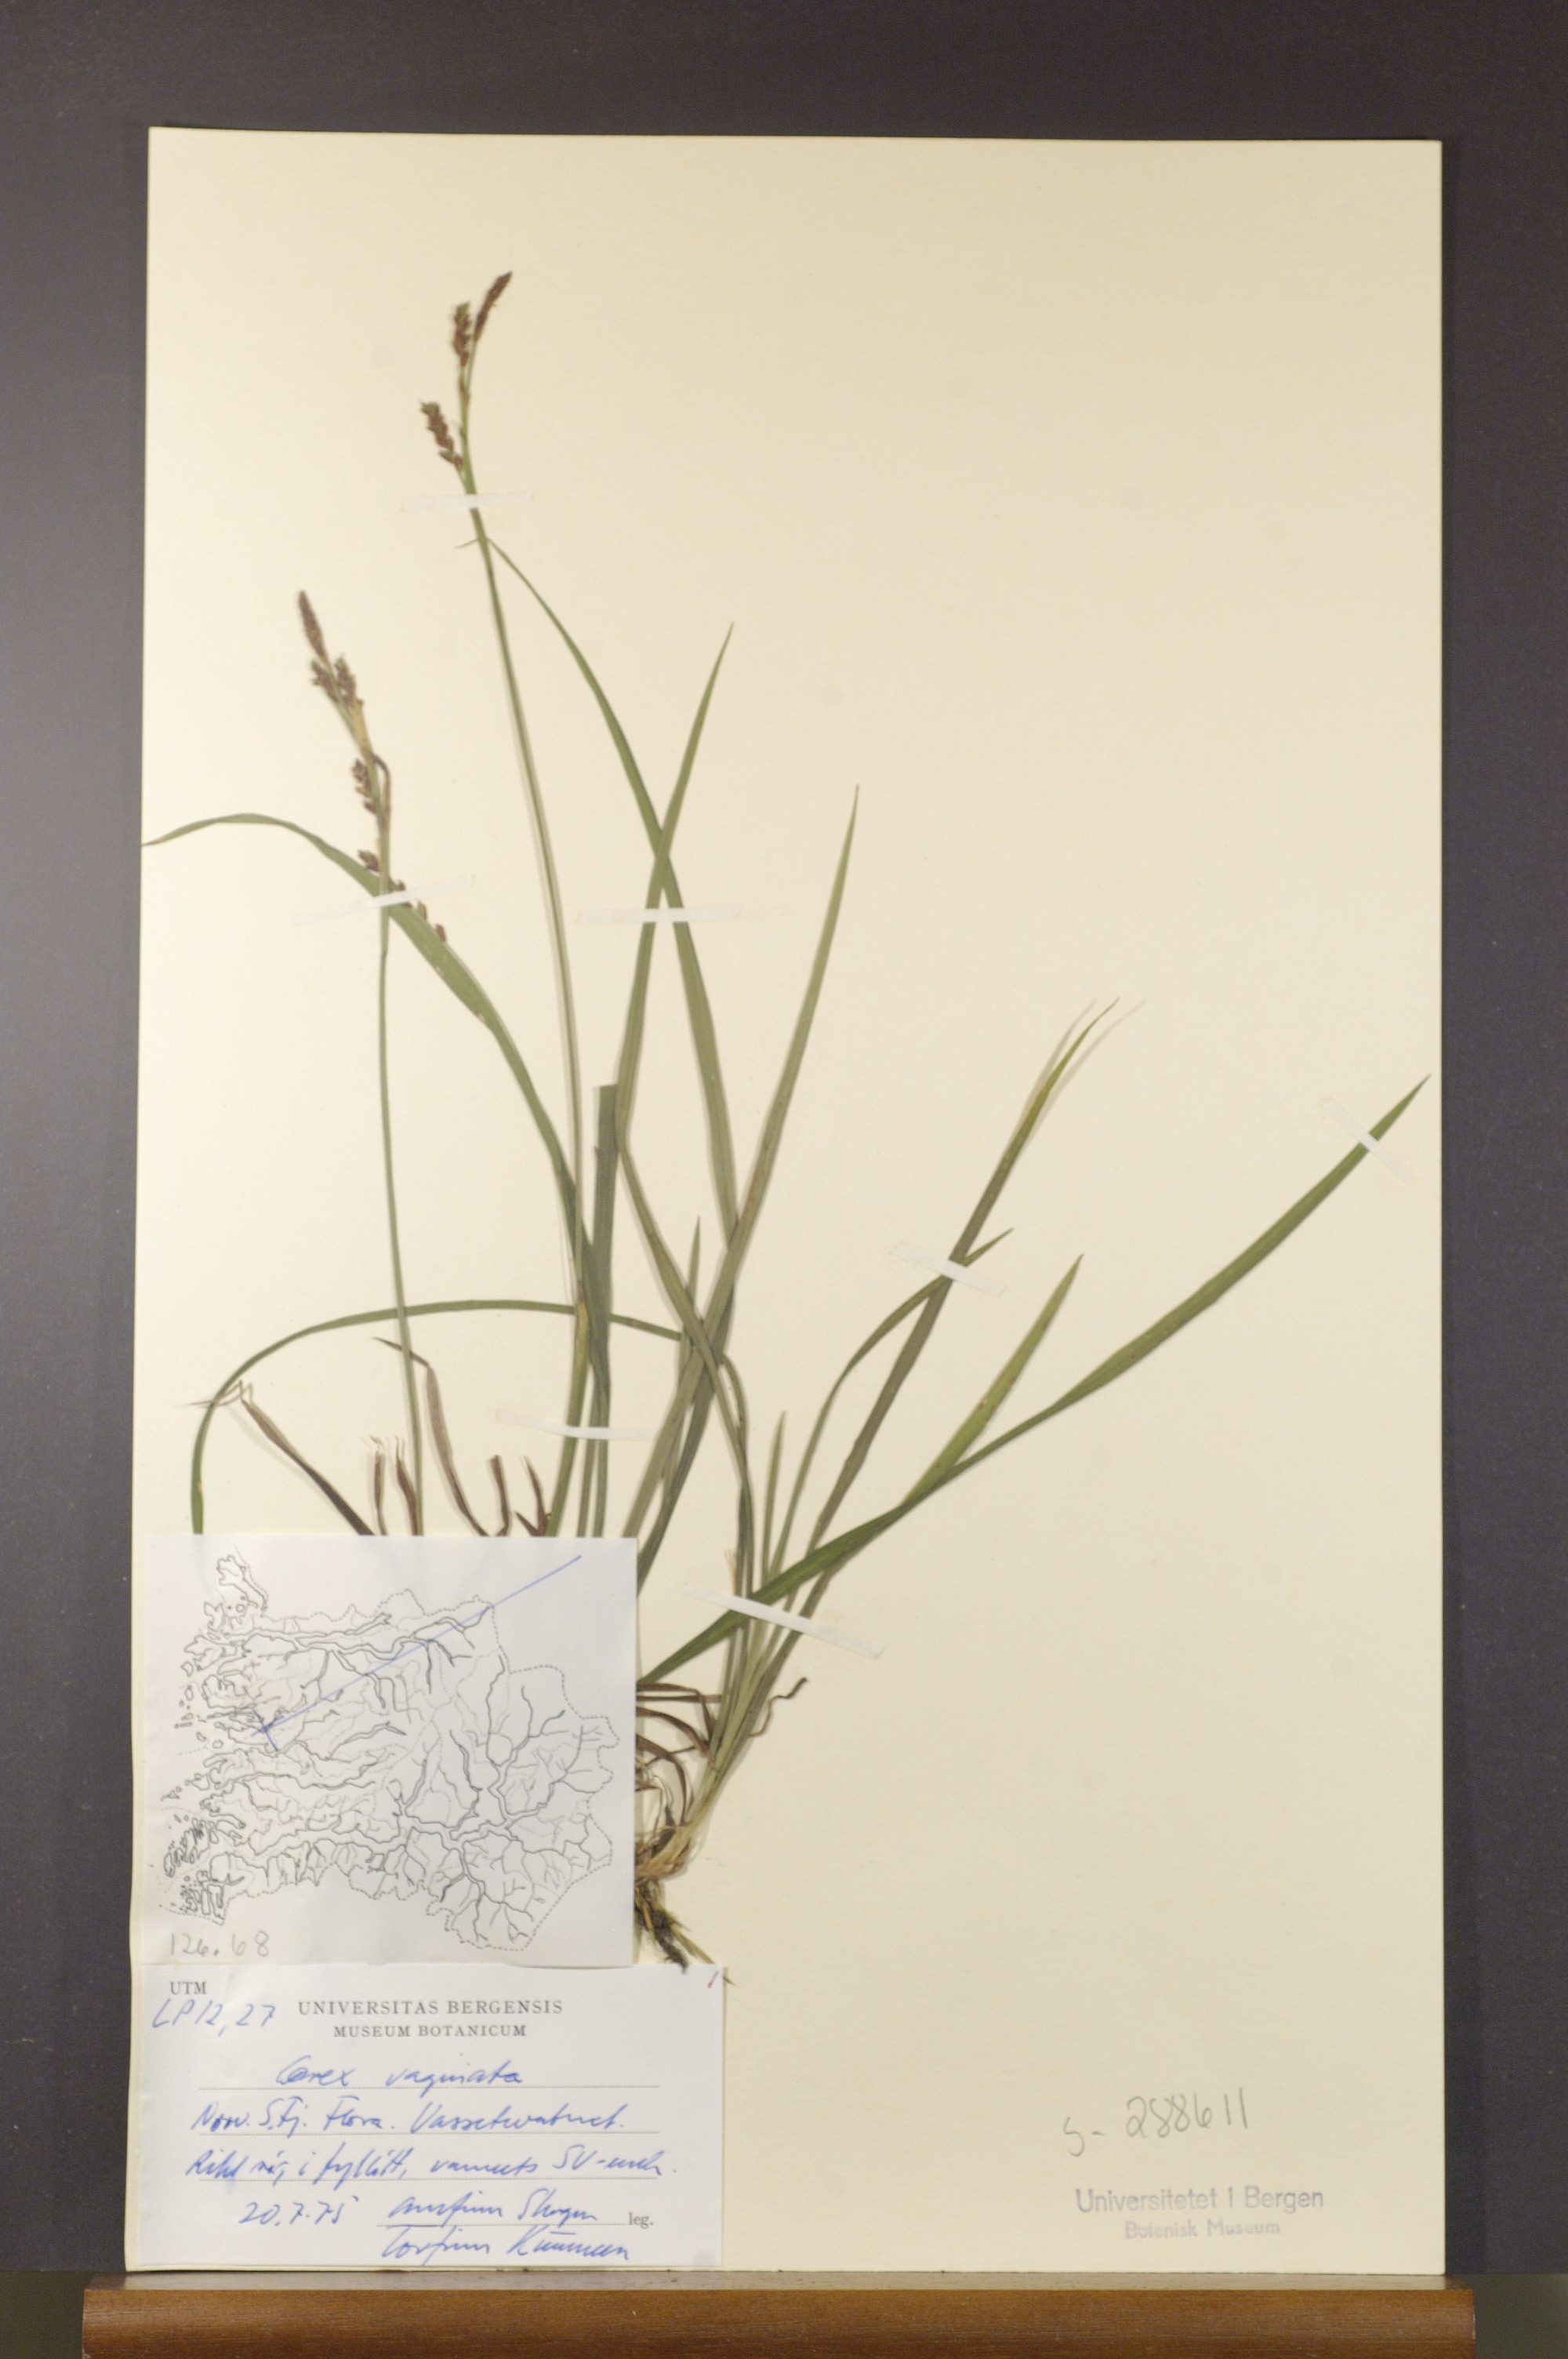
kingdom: Plantae
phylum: Tracheophyta
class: Liliopsida
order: Poales
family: Cyperaceae
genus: Carex
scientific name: Carex vaginata
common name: Sheathed sedge
